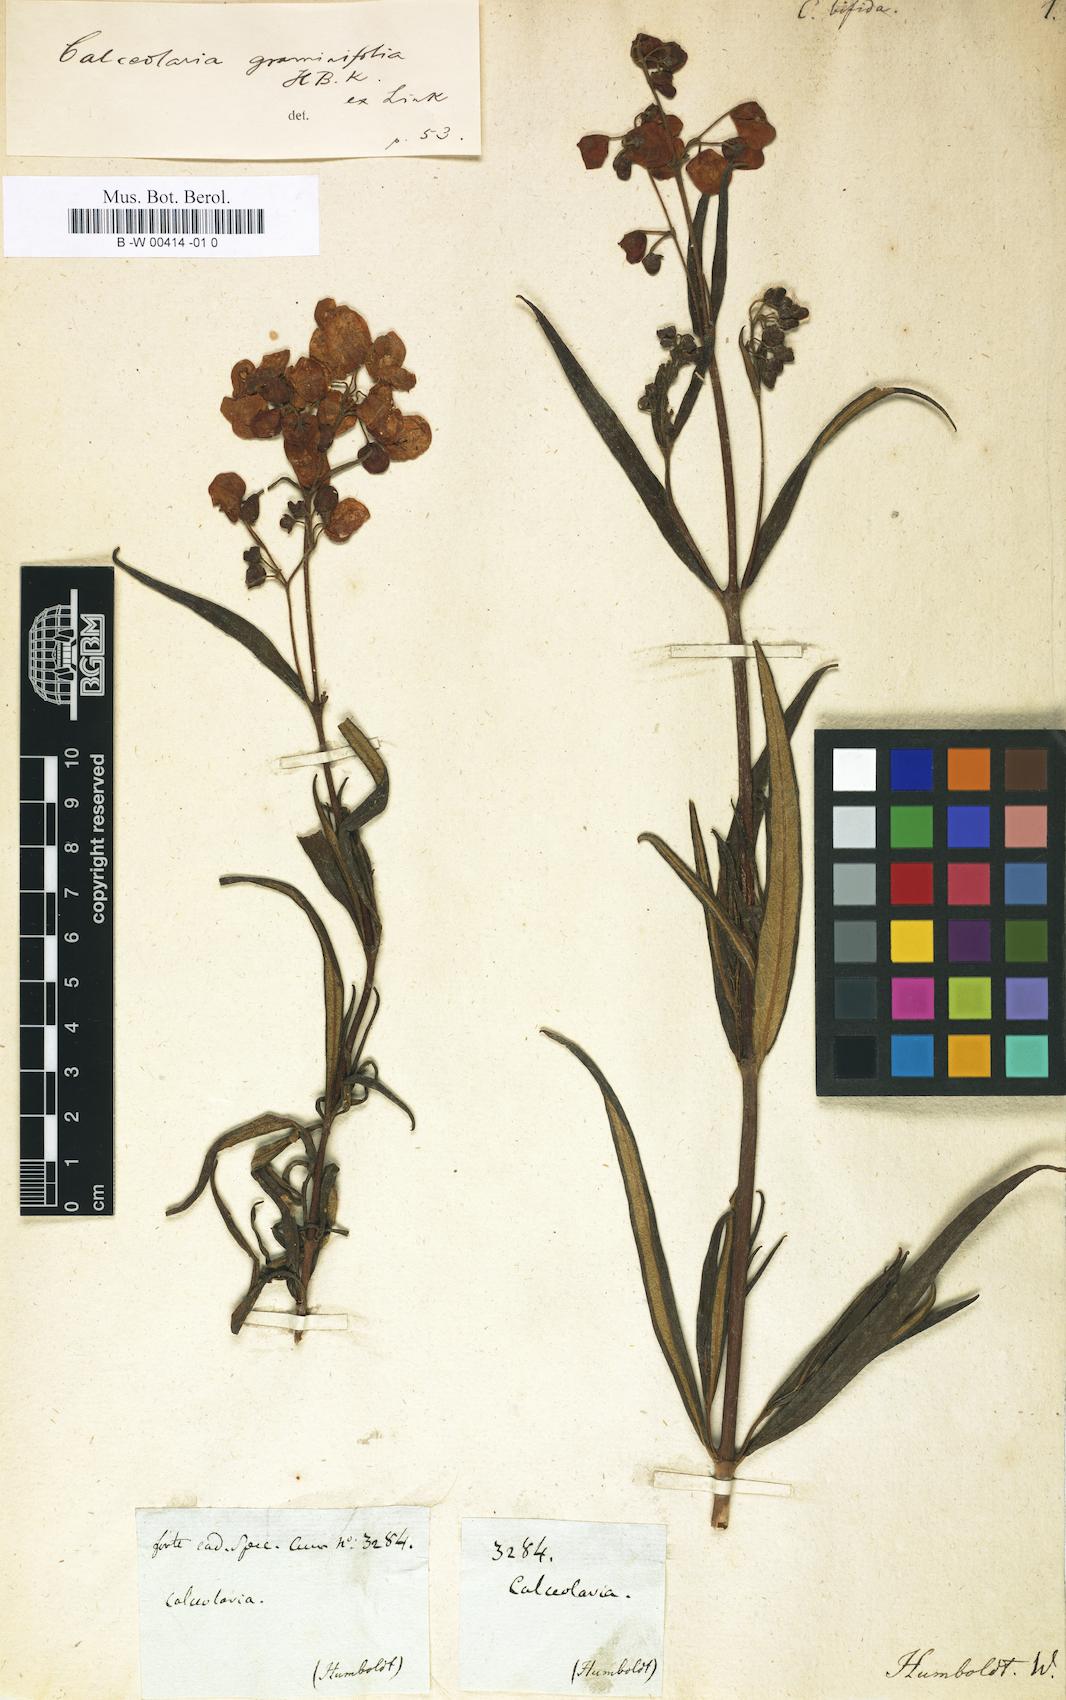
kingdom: Plantae
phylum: Tracheophyta
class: Magnoliopsida
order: Lamiales
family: Calceolariaceae
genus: Calceolaria
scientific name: Calceolaria rosmarinifolia
